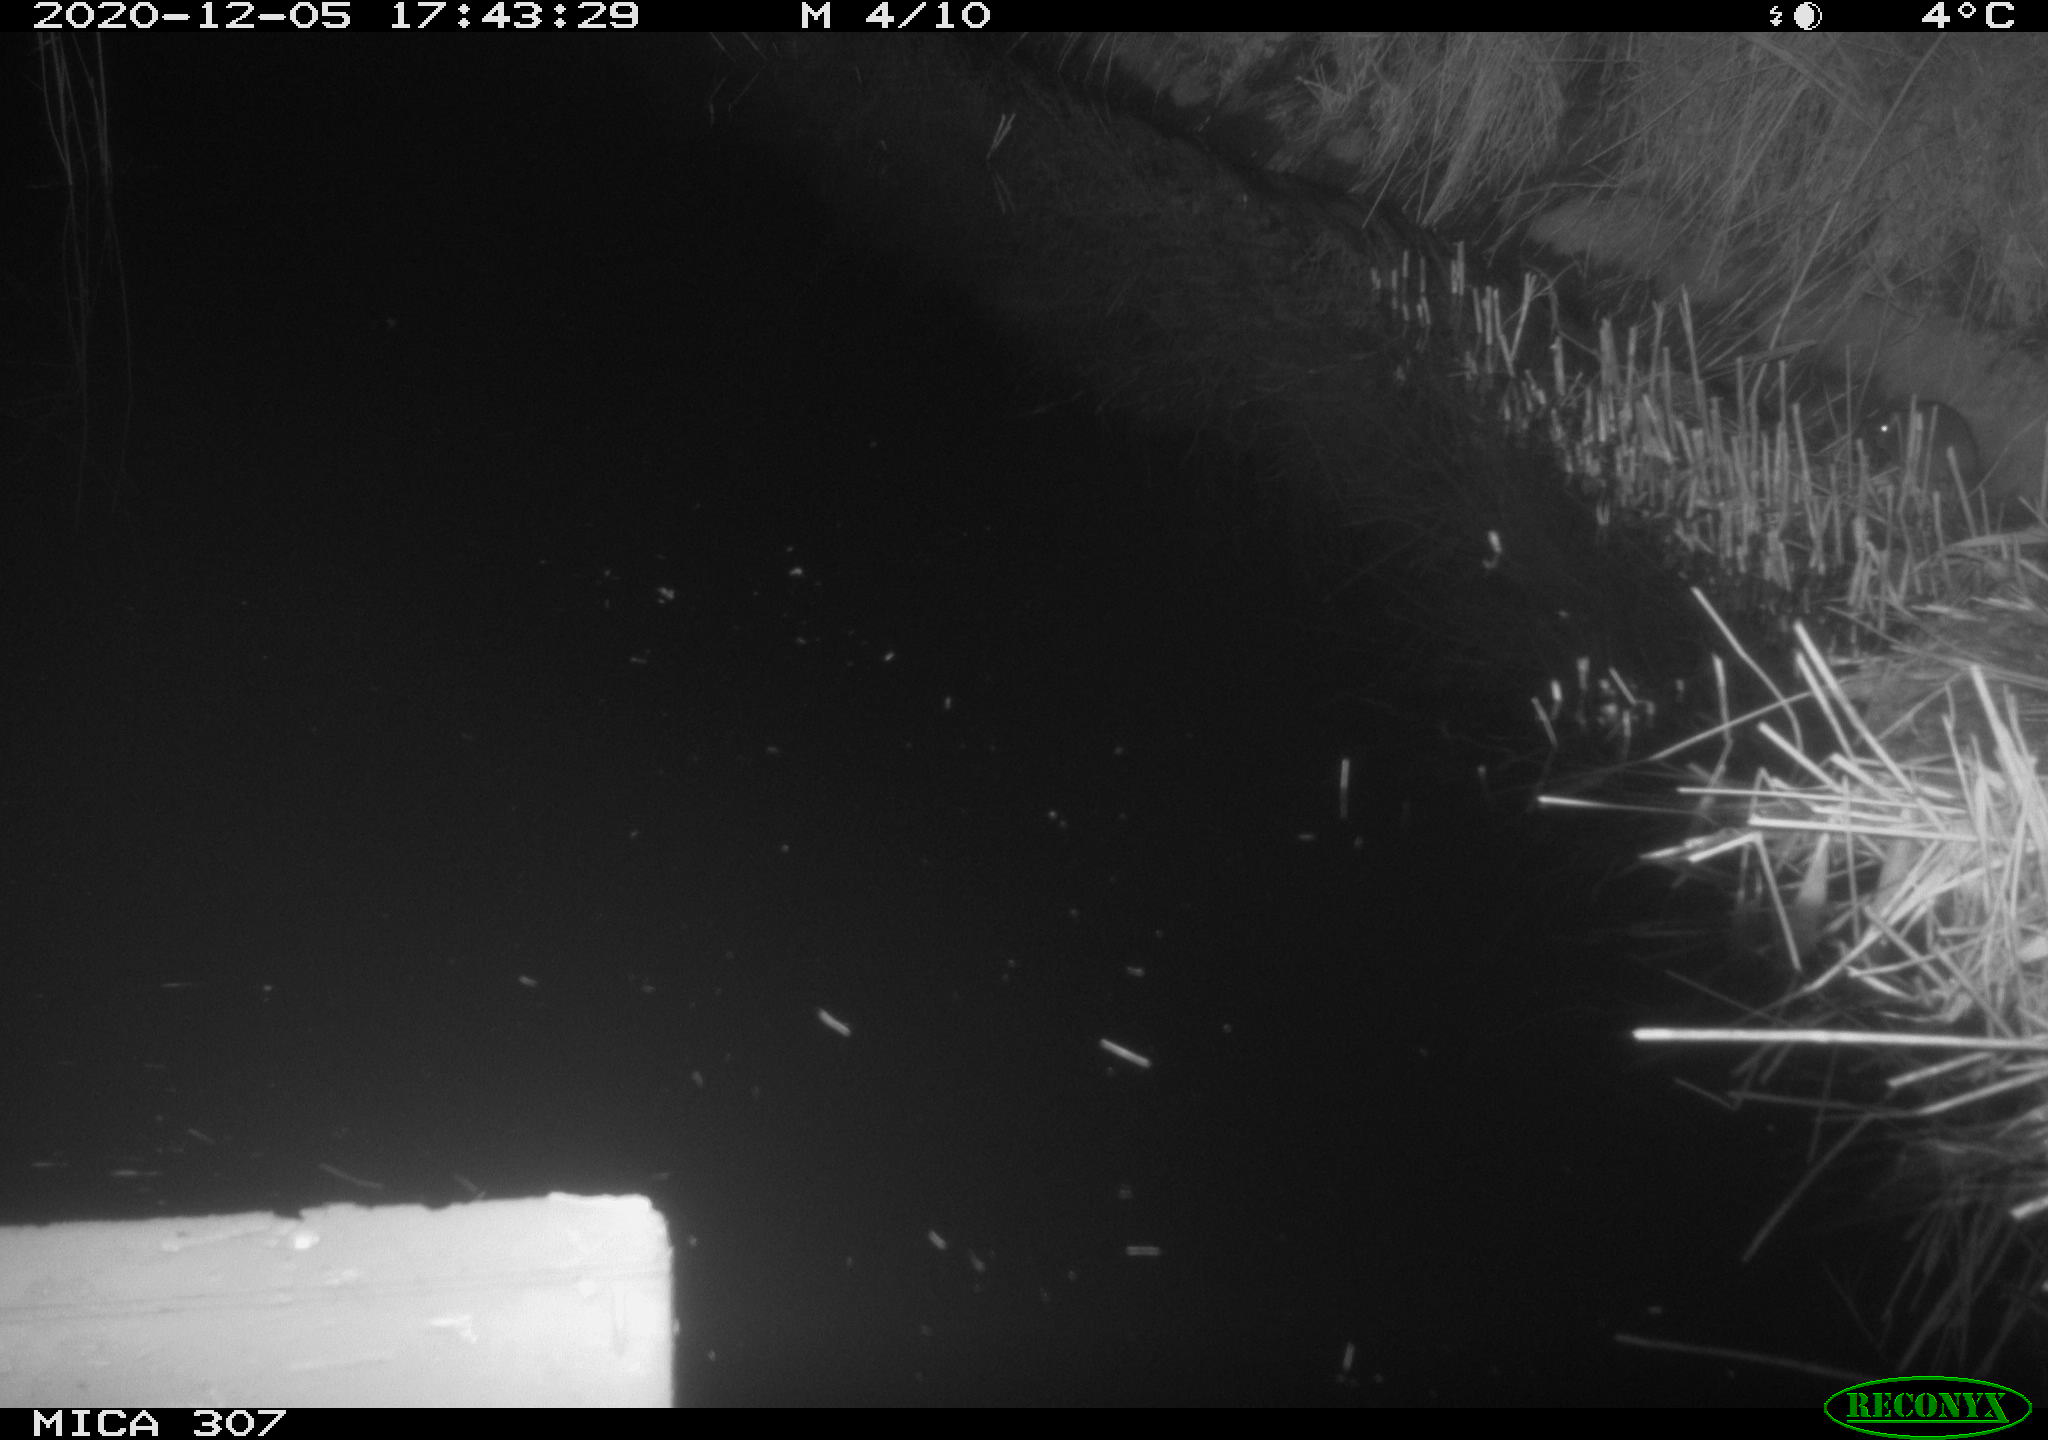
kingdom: Animalia
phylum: Chordata
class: Mammalia
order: Rodentia
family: Muridae
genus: Rattus
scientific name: Rattus norvegicus
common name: Brown rat
